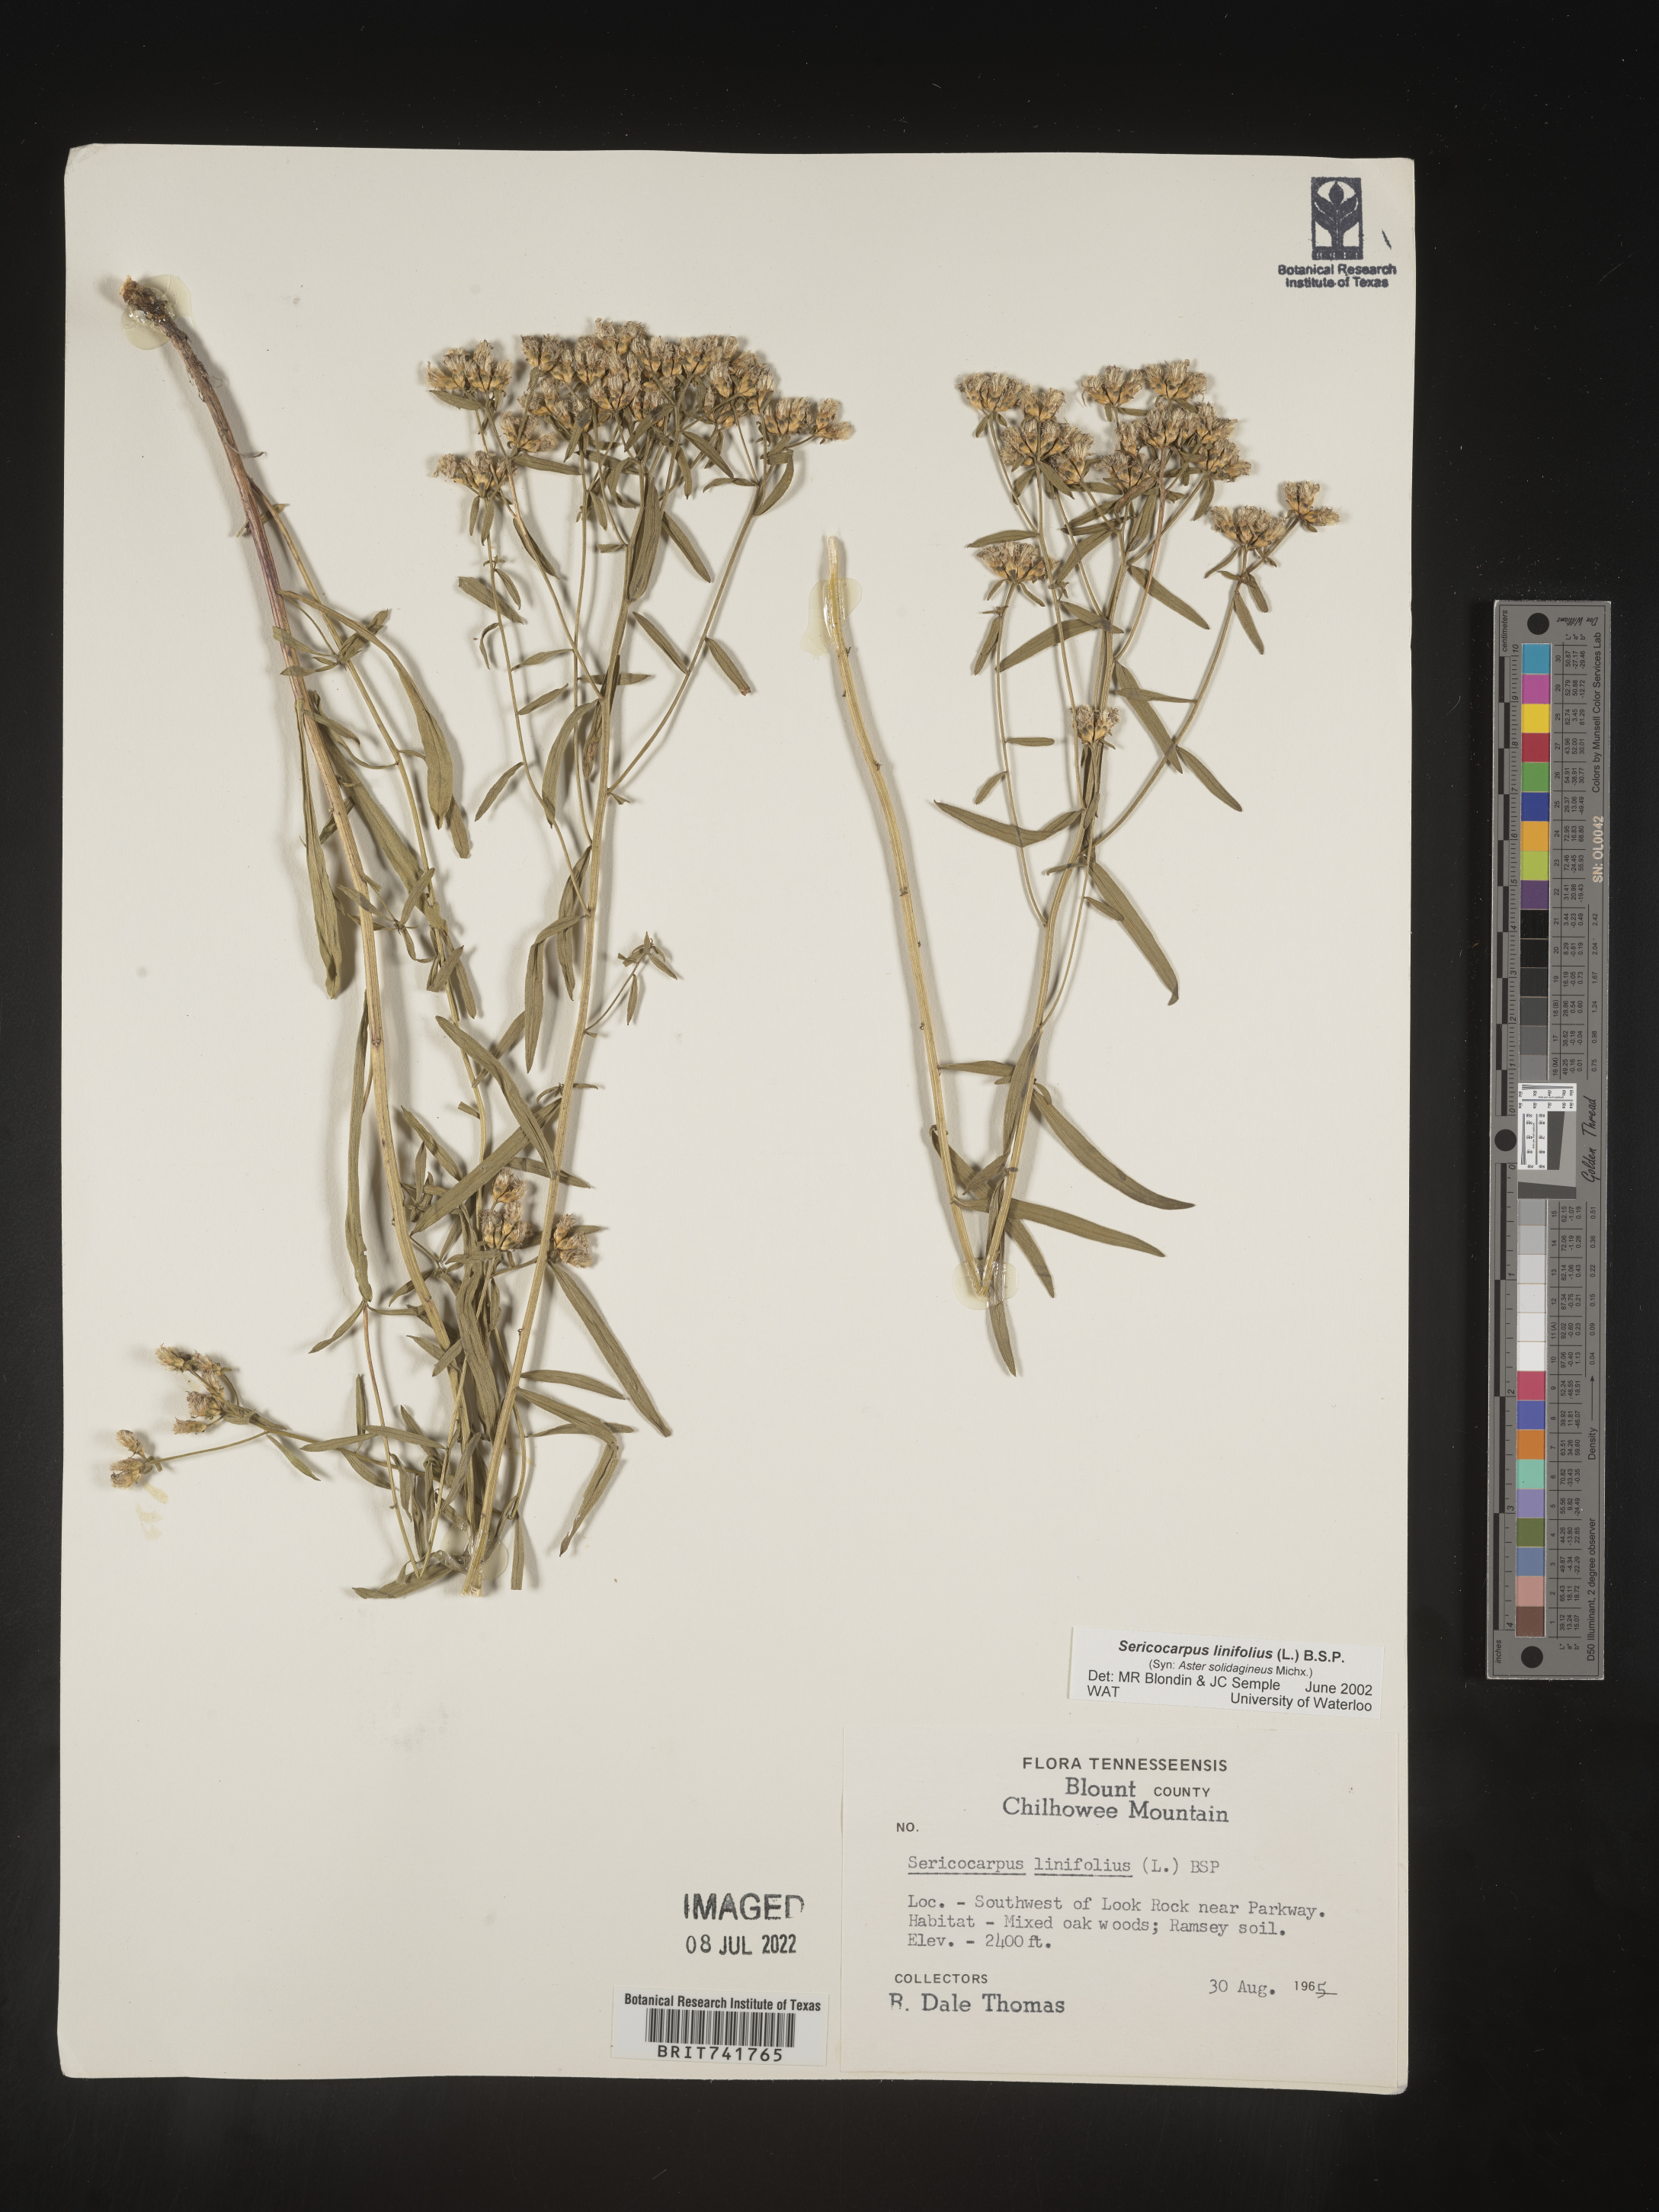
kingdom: Plantae
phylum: Tracheophyta
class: Magnoliopsida
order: Asterales
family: Asteraceae
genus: Sericocarpus
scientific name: Sericocarpus linifolius
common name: Narrow-leaf aster
